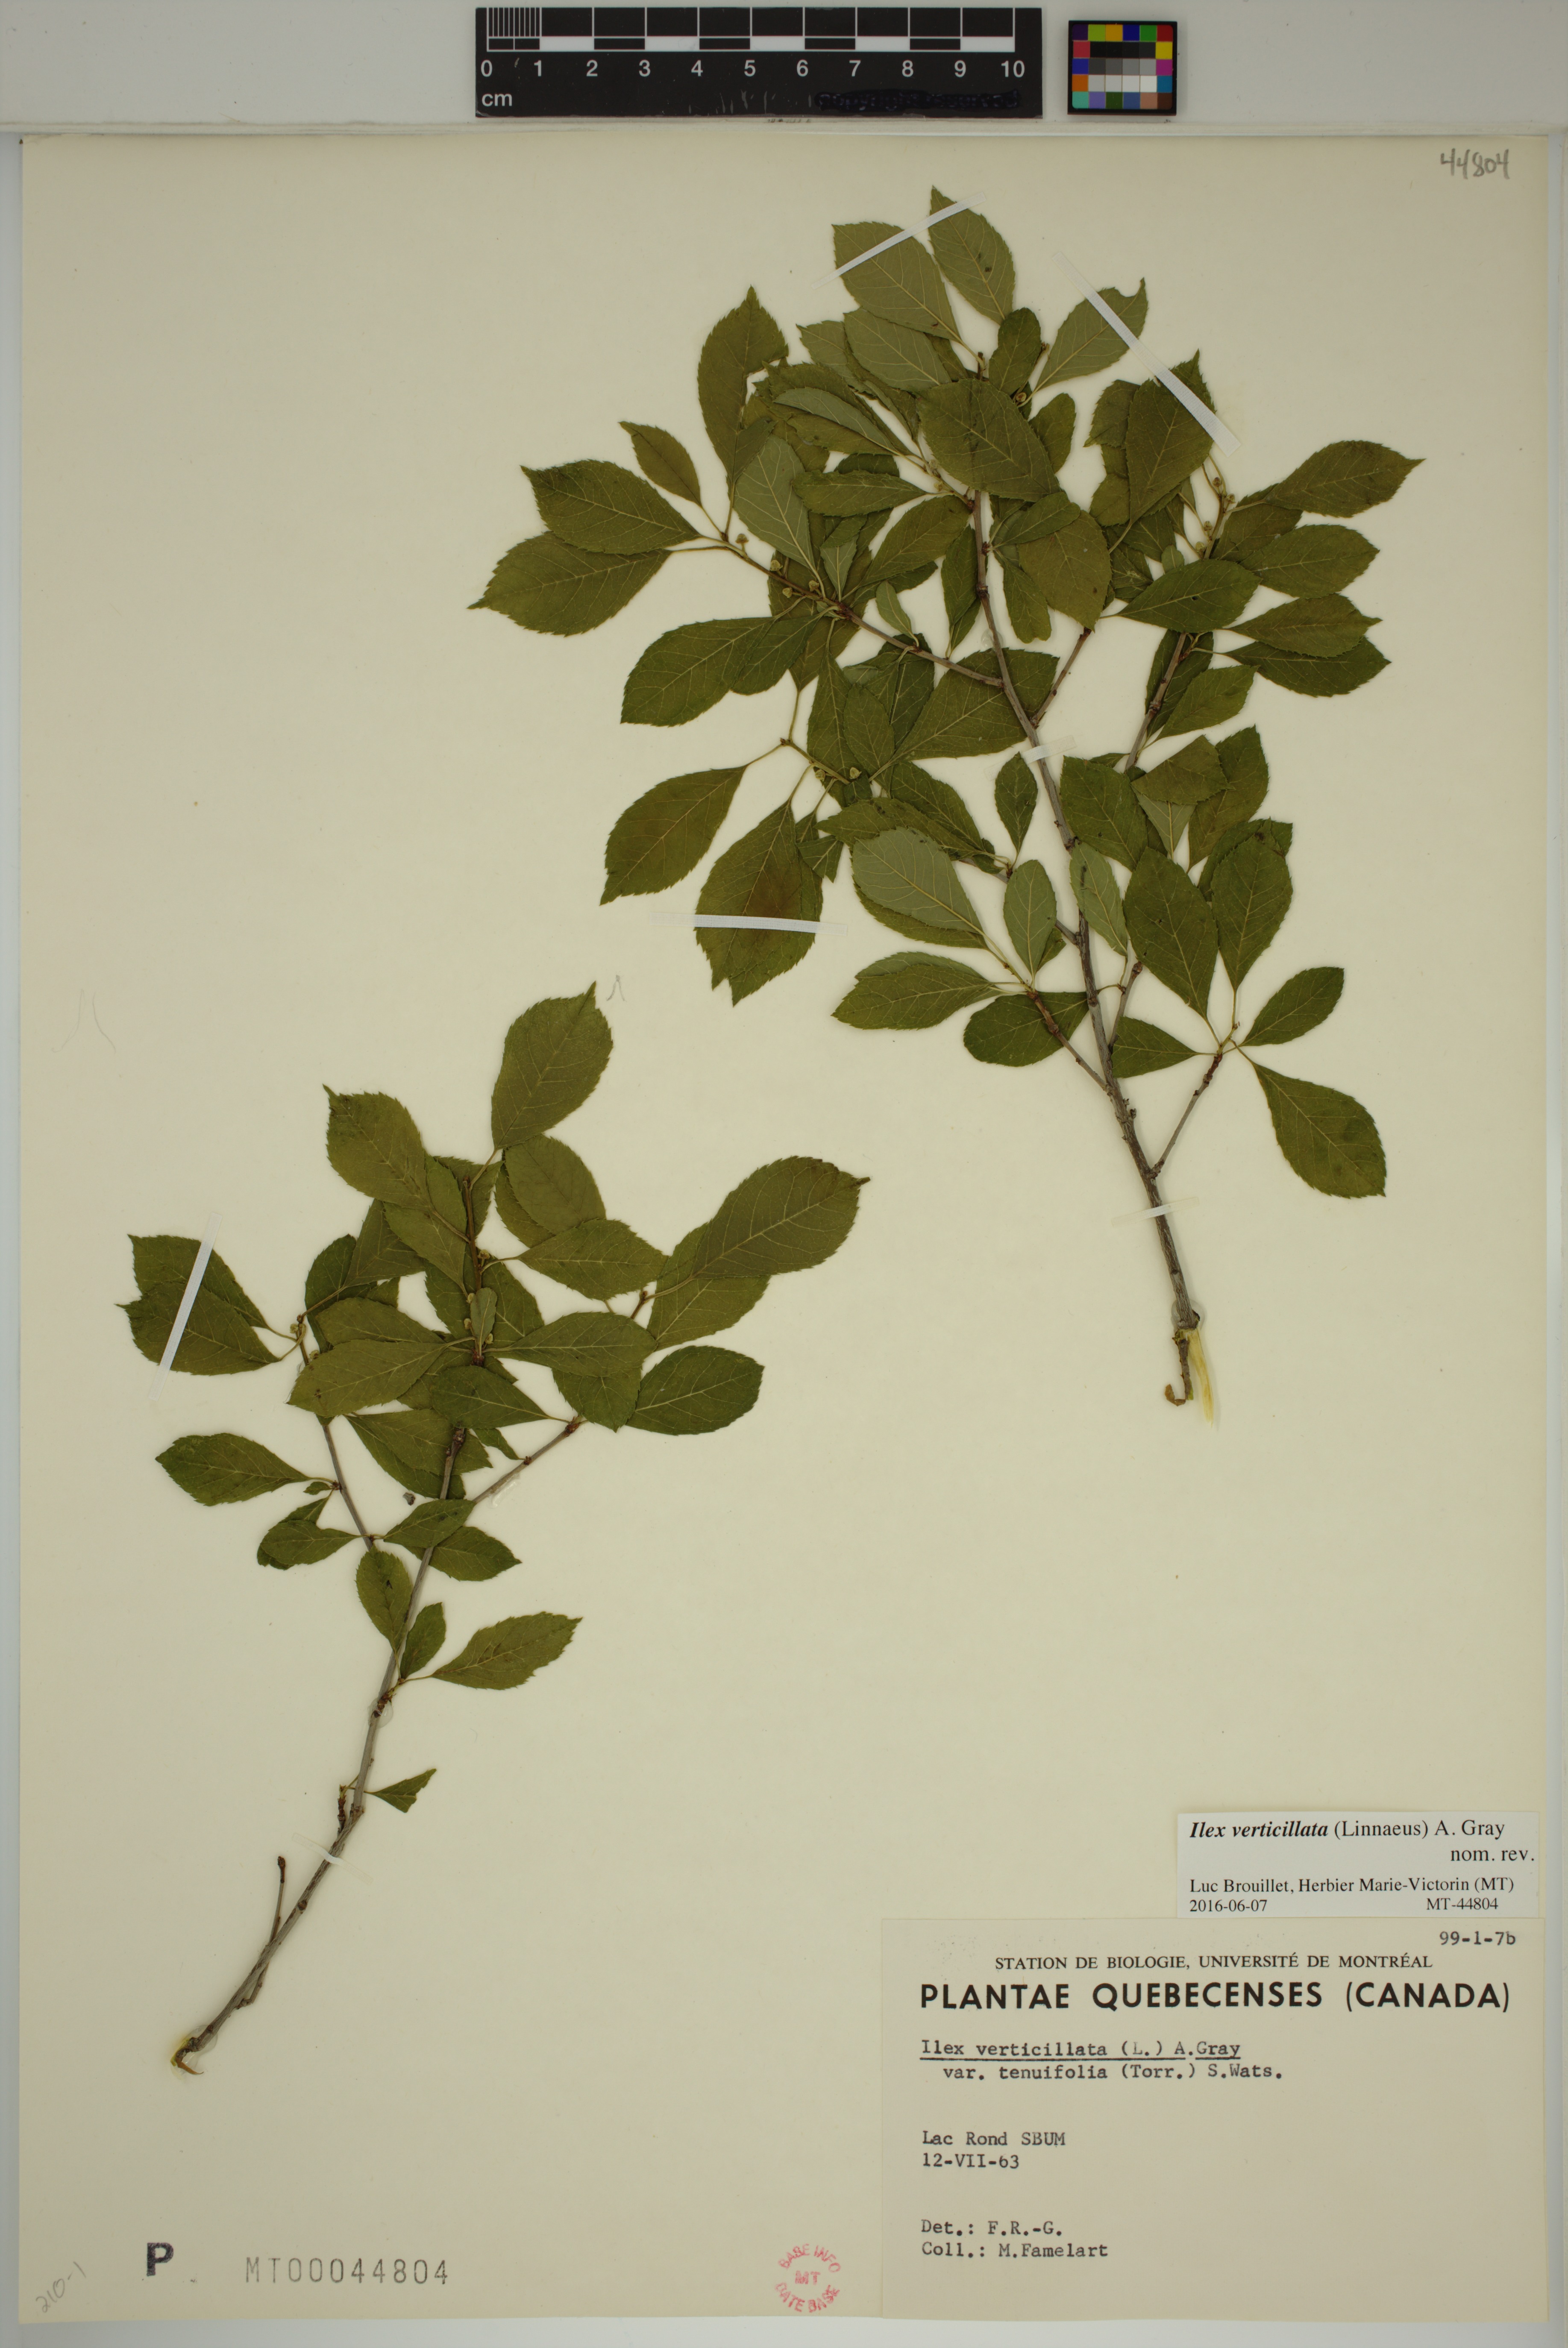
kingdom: Plantae
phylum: Tracheophyta
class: Magnoliopsida
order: Aquifoliales
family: Aquifoliaceae
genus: Ilex
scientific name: Ilex verticillata
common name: Virginia winterberry
